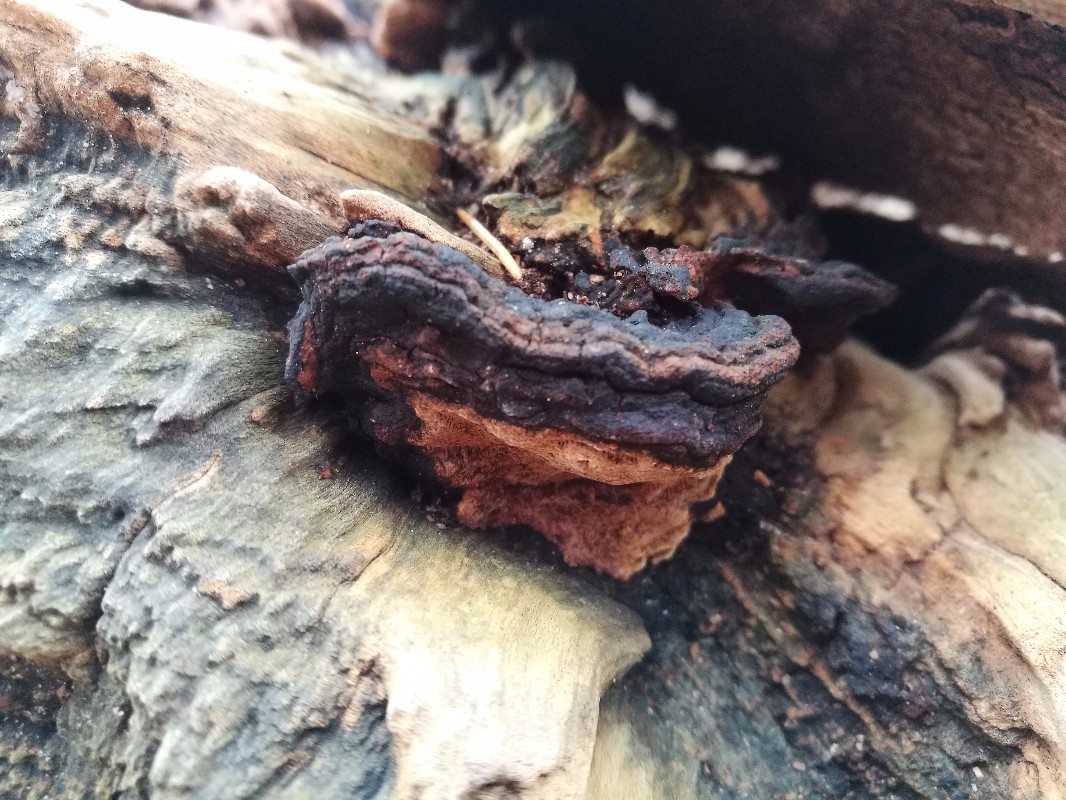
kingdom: Fungi
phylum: Basidiomycota
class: Agaricomycetes
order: Hymenochaetales
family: Hymenochaetaceae
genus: Phellinopsis
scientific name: Phellinopsis conchata
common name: pile-ildporesvamp
